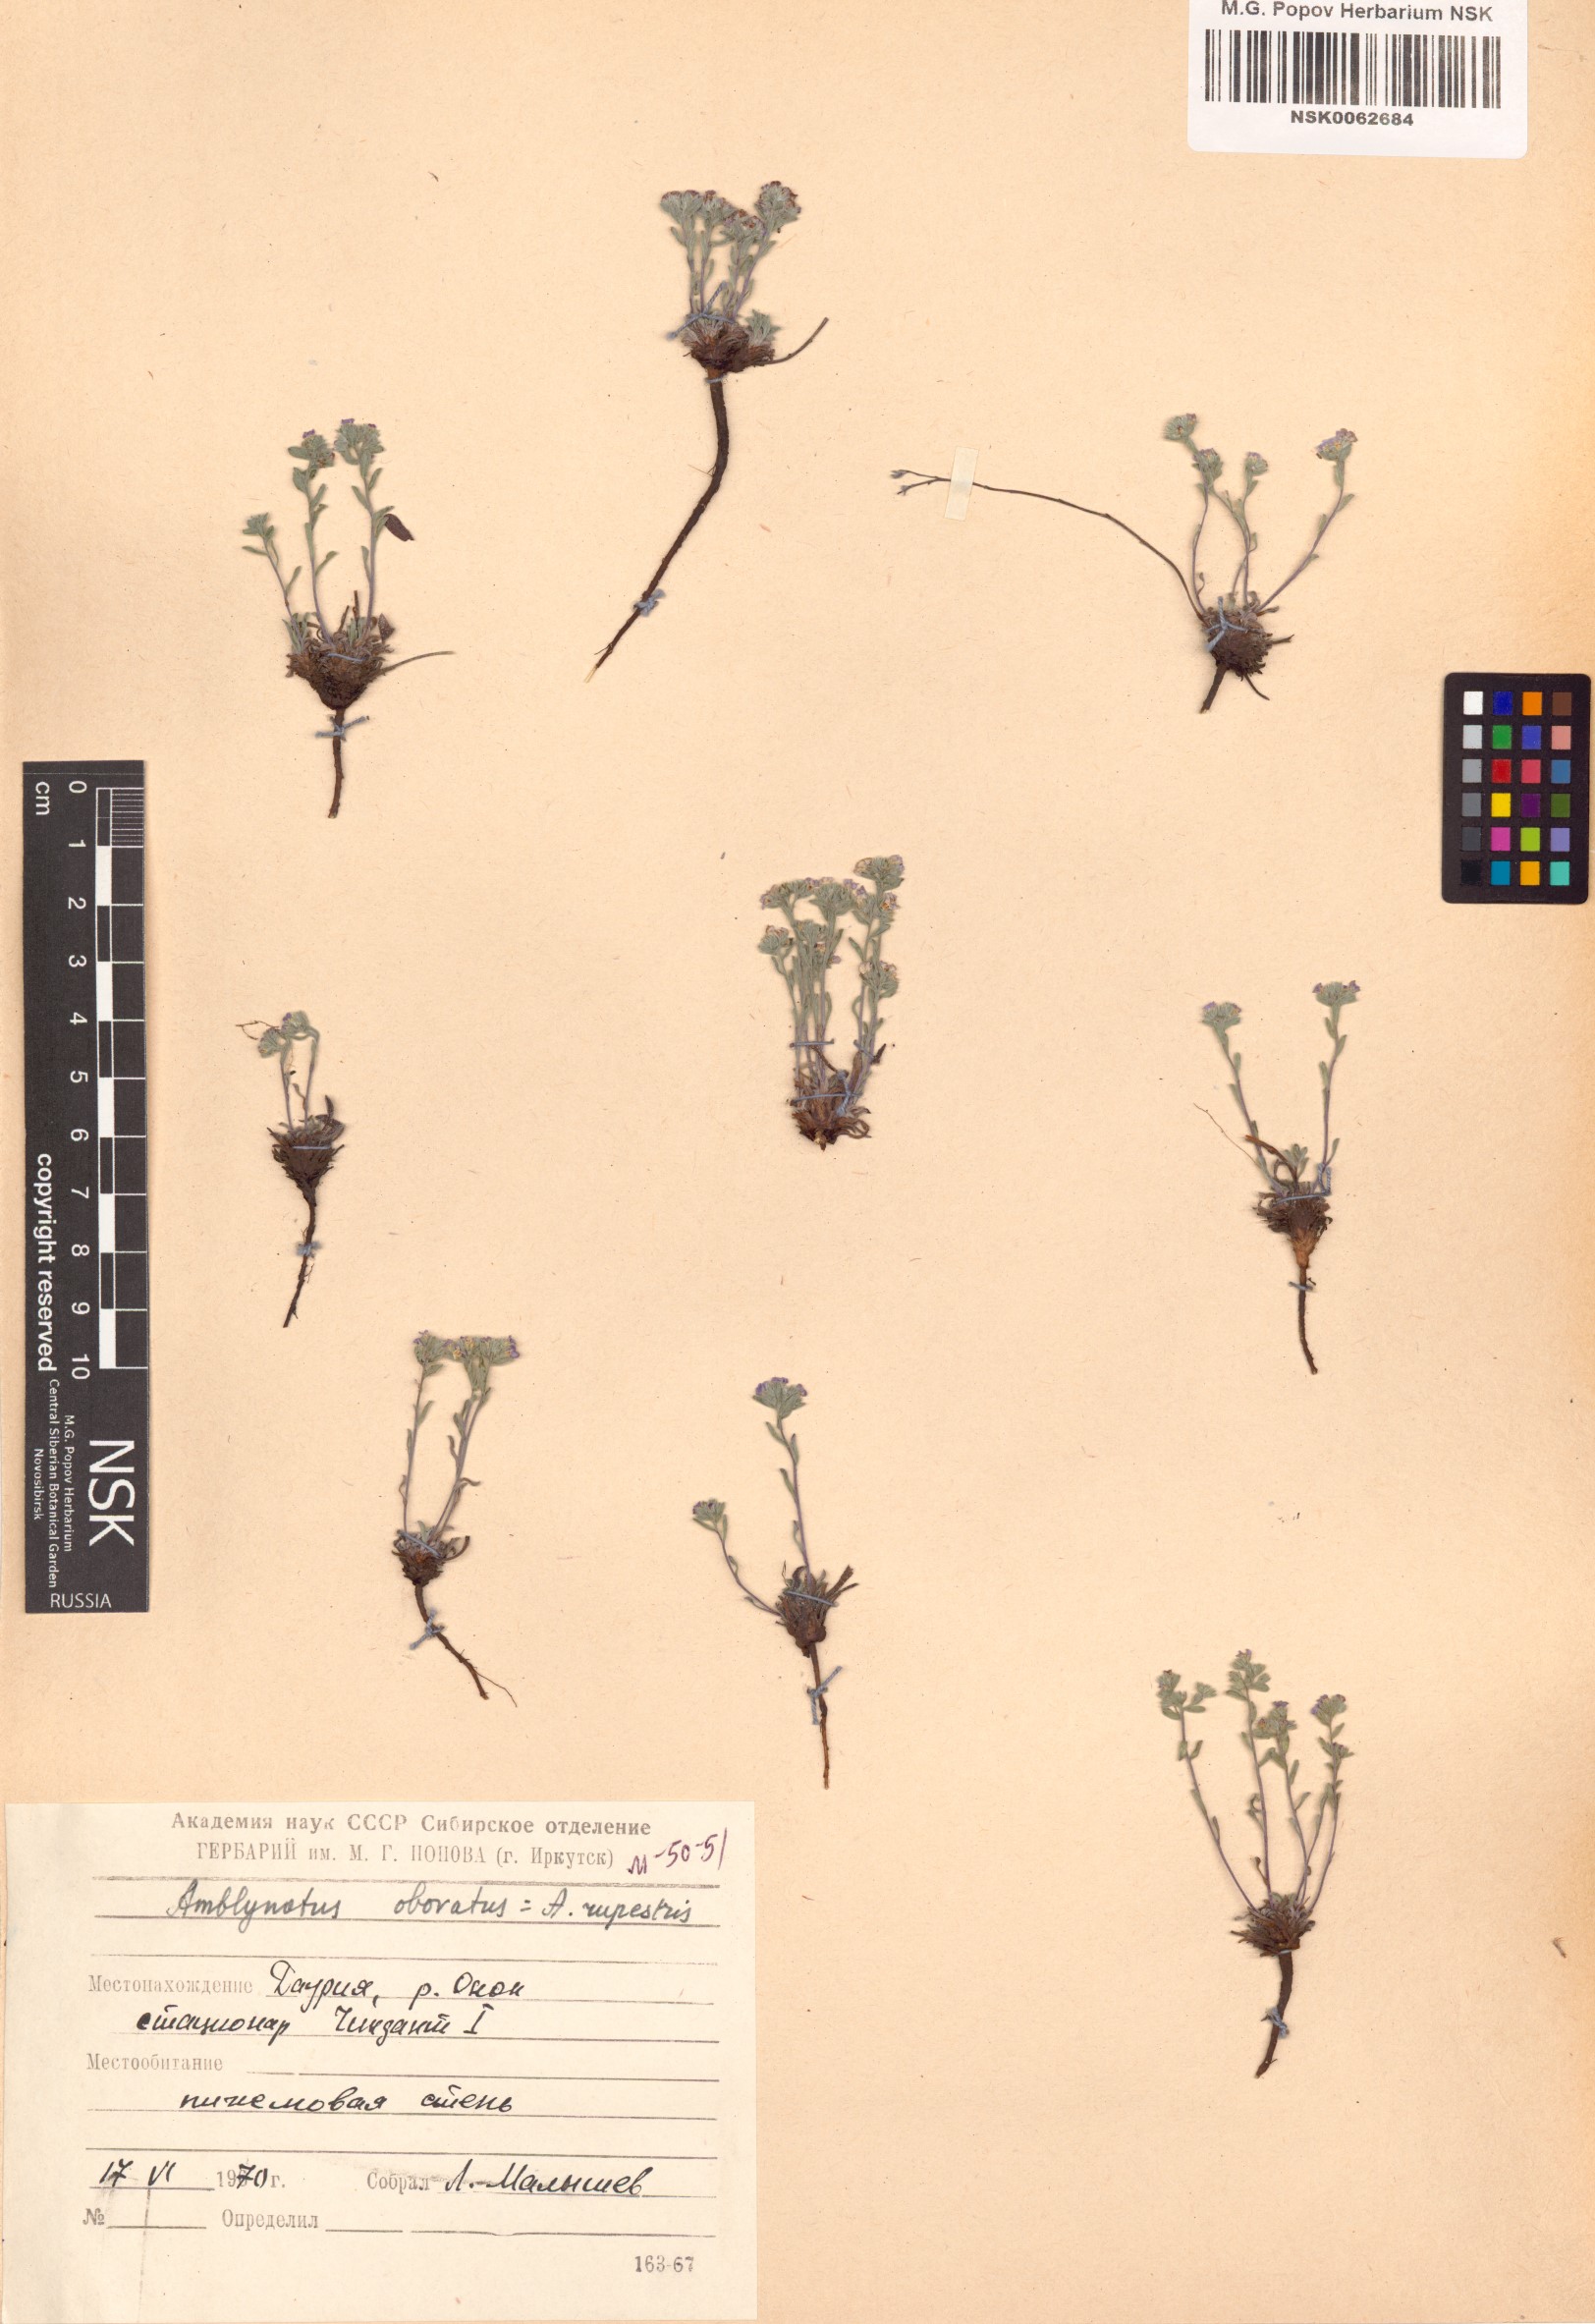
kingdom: Plantae
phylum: Tracheophyta
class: Magnoliopsida
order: Boraginales
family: Boraginaceae
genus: Eritrichium
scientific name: Eritrichium rupestre
